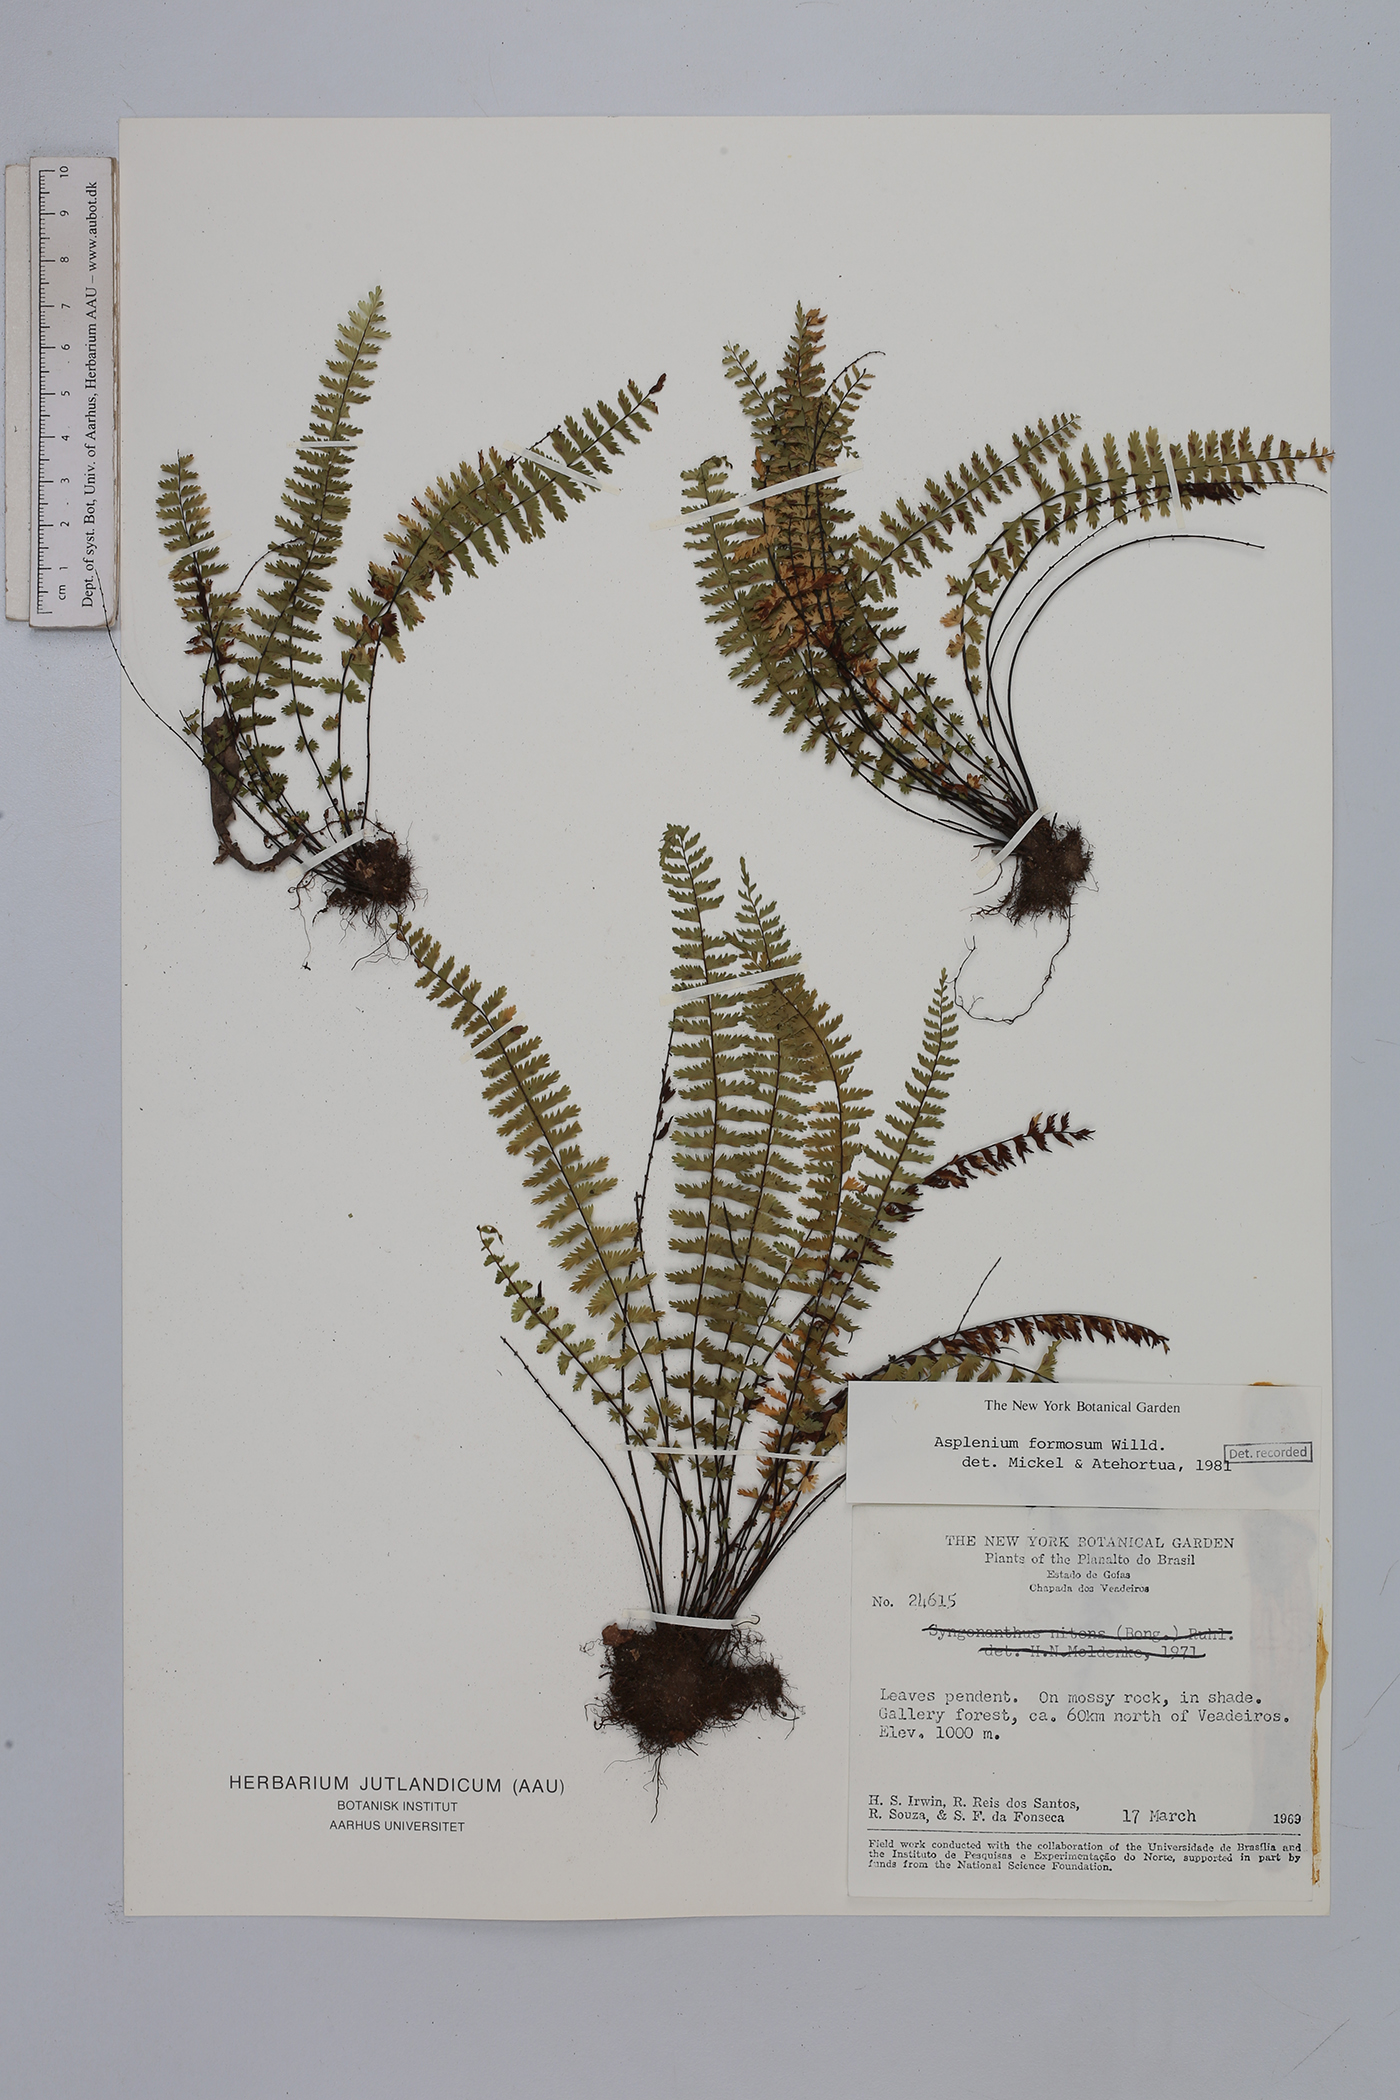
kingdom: Plantae
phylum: Tracheophyta
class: Polypodiopsida
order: Polypodiales
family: Aspleniaceae
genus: Asplenium
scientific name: Asplenium formosum
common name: Showy spleenwort
